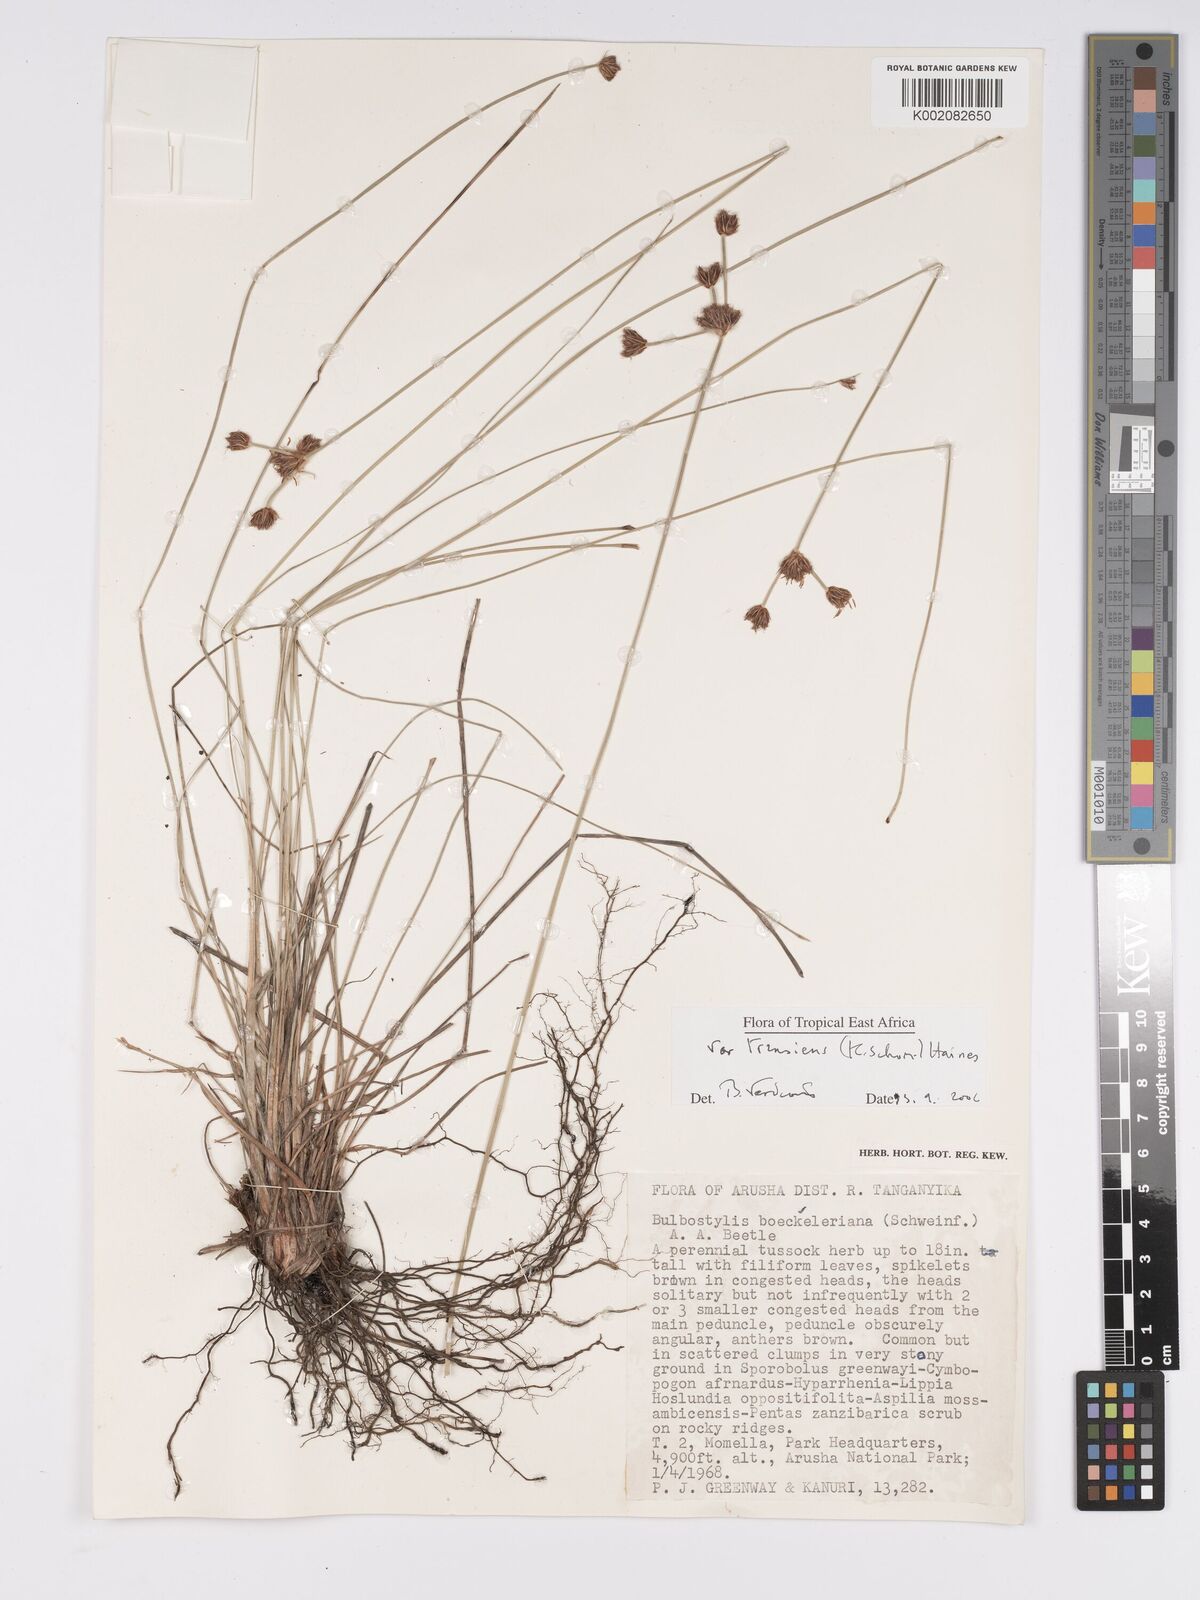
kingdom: Plantae
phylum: Tracheophyta
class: Liliopsida
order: Poales
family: Cyperaceae
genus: Bulbostylis
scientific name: Bulbostylis boeckeleriana
